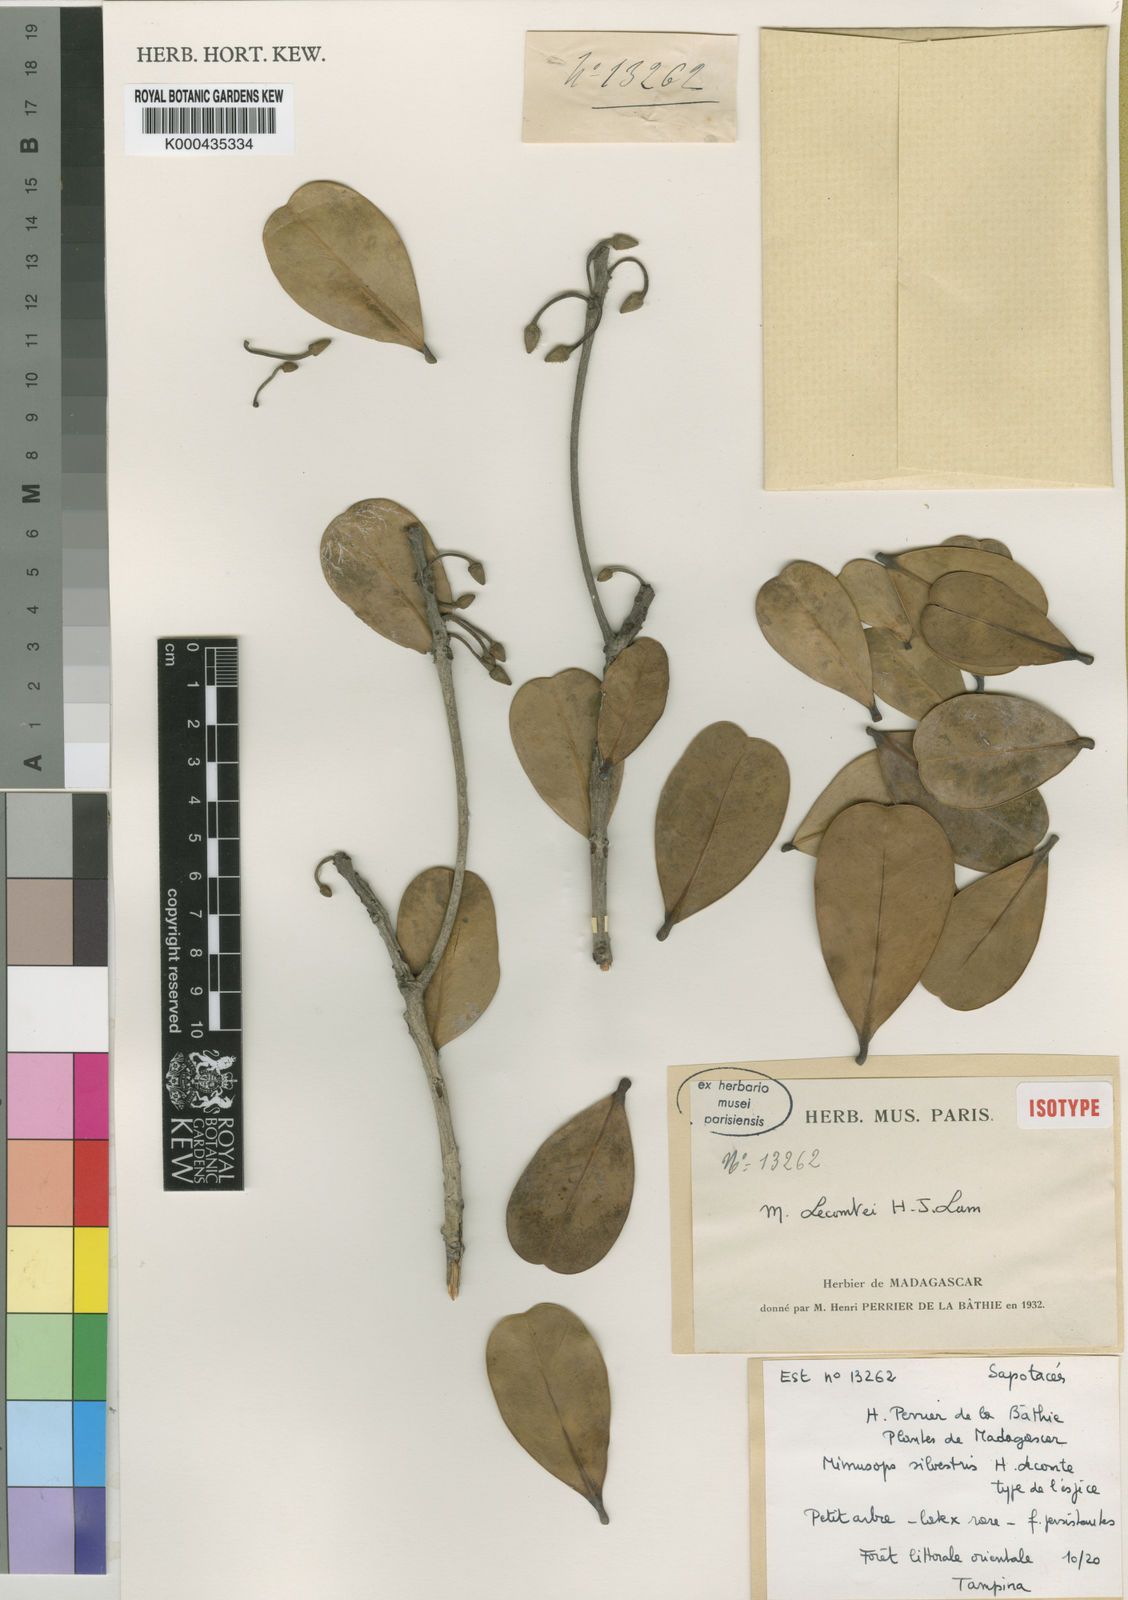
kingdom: Plantae
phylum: Tracheophyta
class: Magnoliopsida
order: Ericales
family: Sapotaceae
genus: Mimusops
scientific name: Mimusops lecomtei
